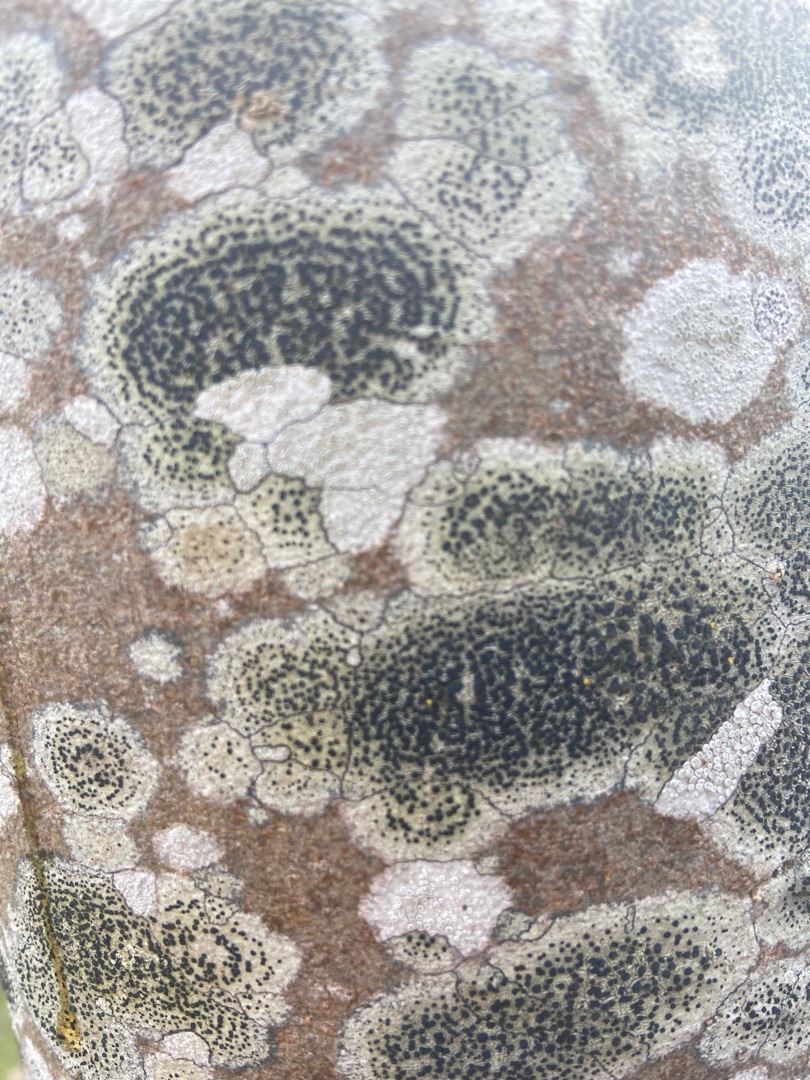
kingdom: Fungi
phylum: Ascomycota
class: Lecanoromycetes
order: Lecanorales
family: Lecanoraceae
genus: Lecidella
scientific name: Lecidella elaeochroma
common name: Grågrøn skivelav
